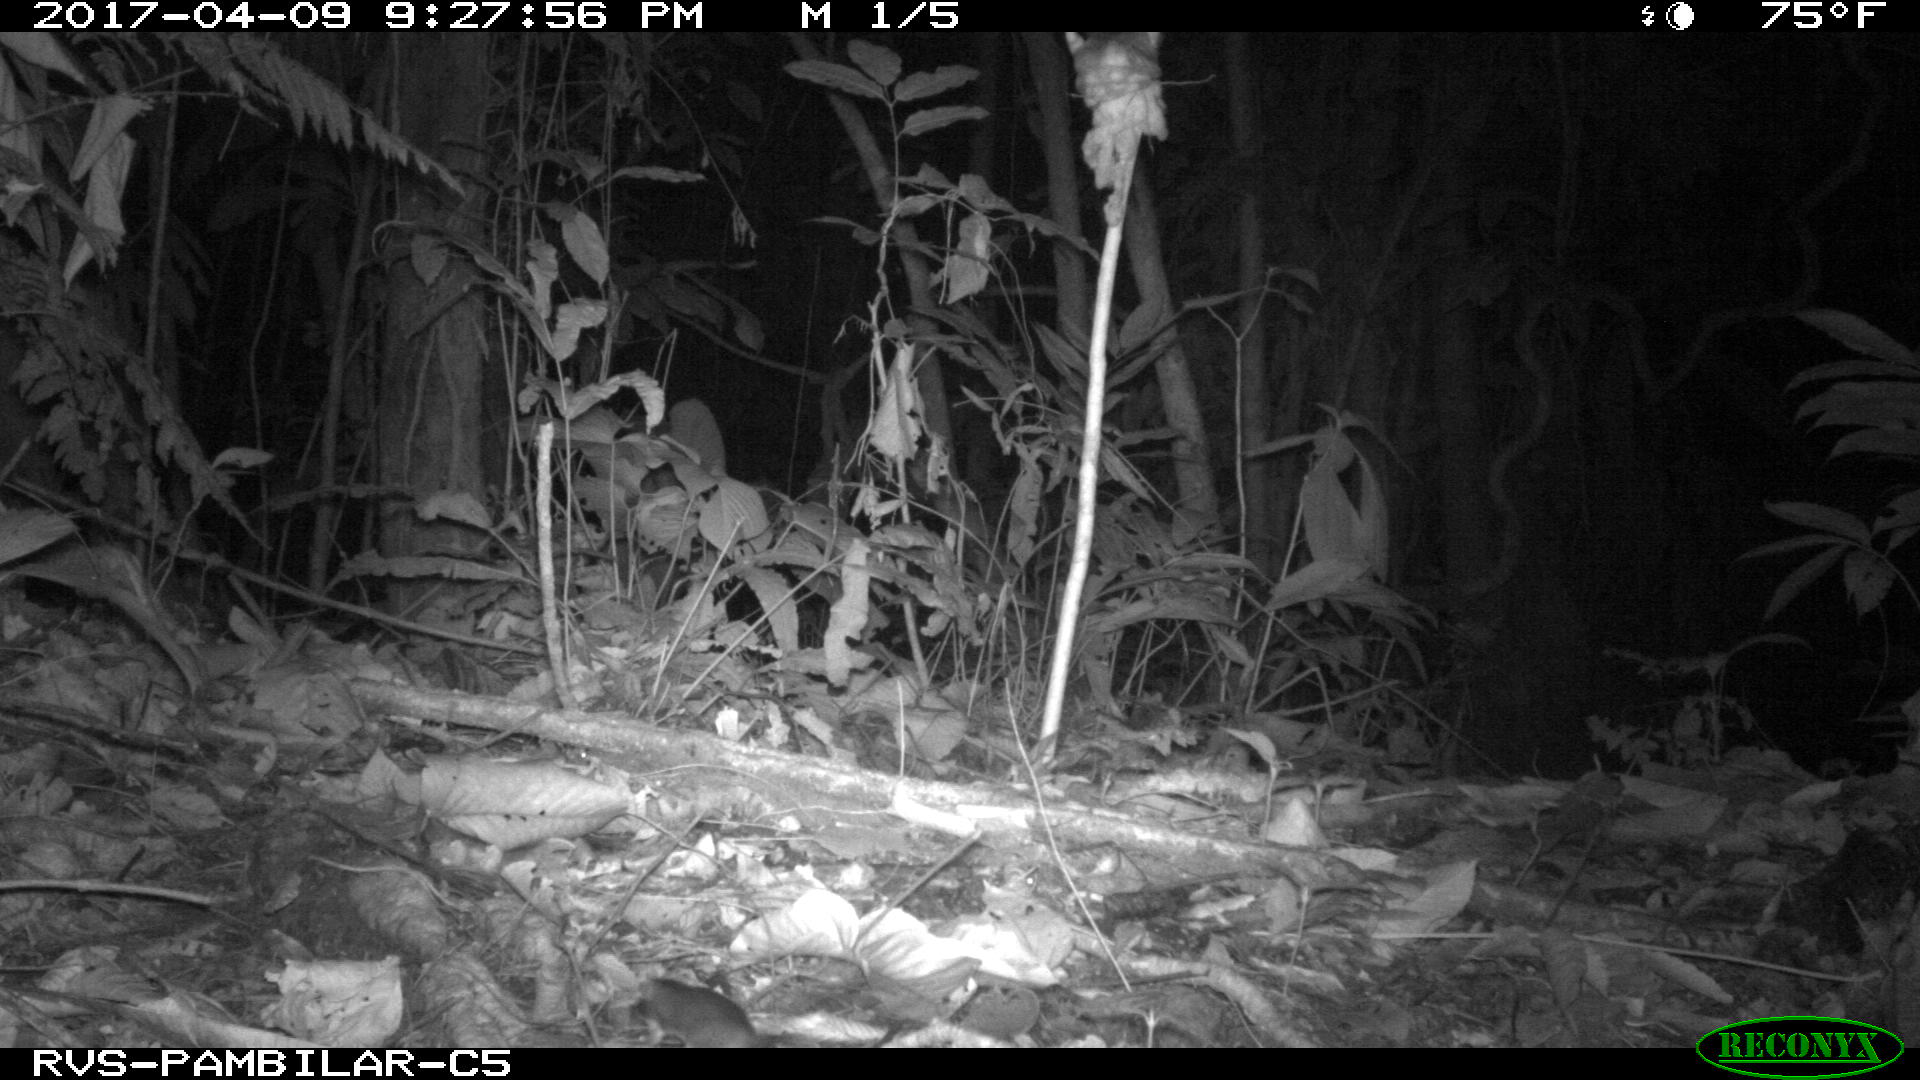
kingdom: Animalia
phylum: Chordata
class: Mammalia
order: Rodentia
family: Echimyidae
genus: Proechimys
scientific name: Proechimys
